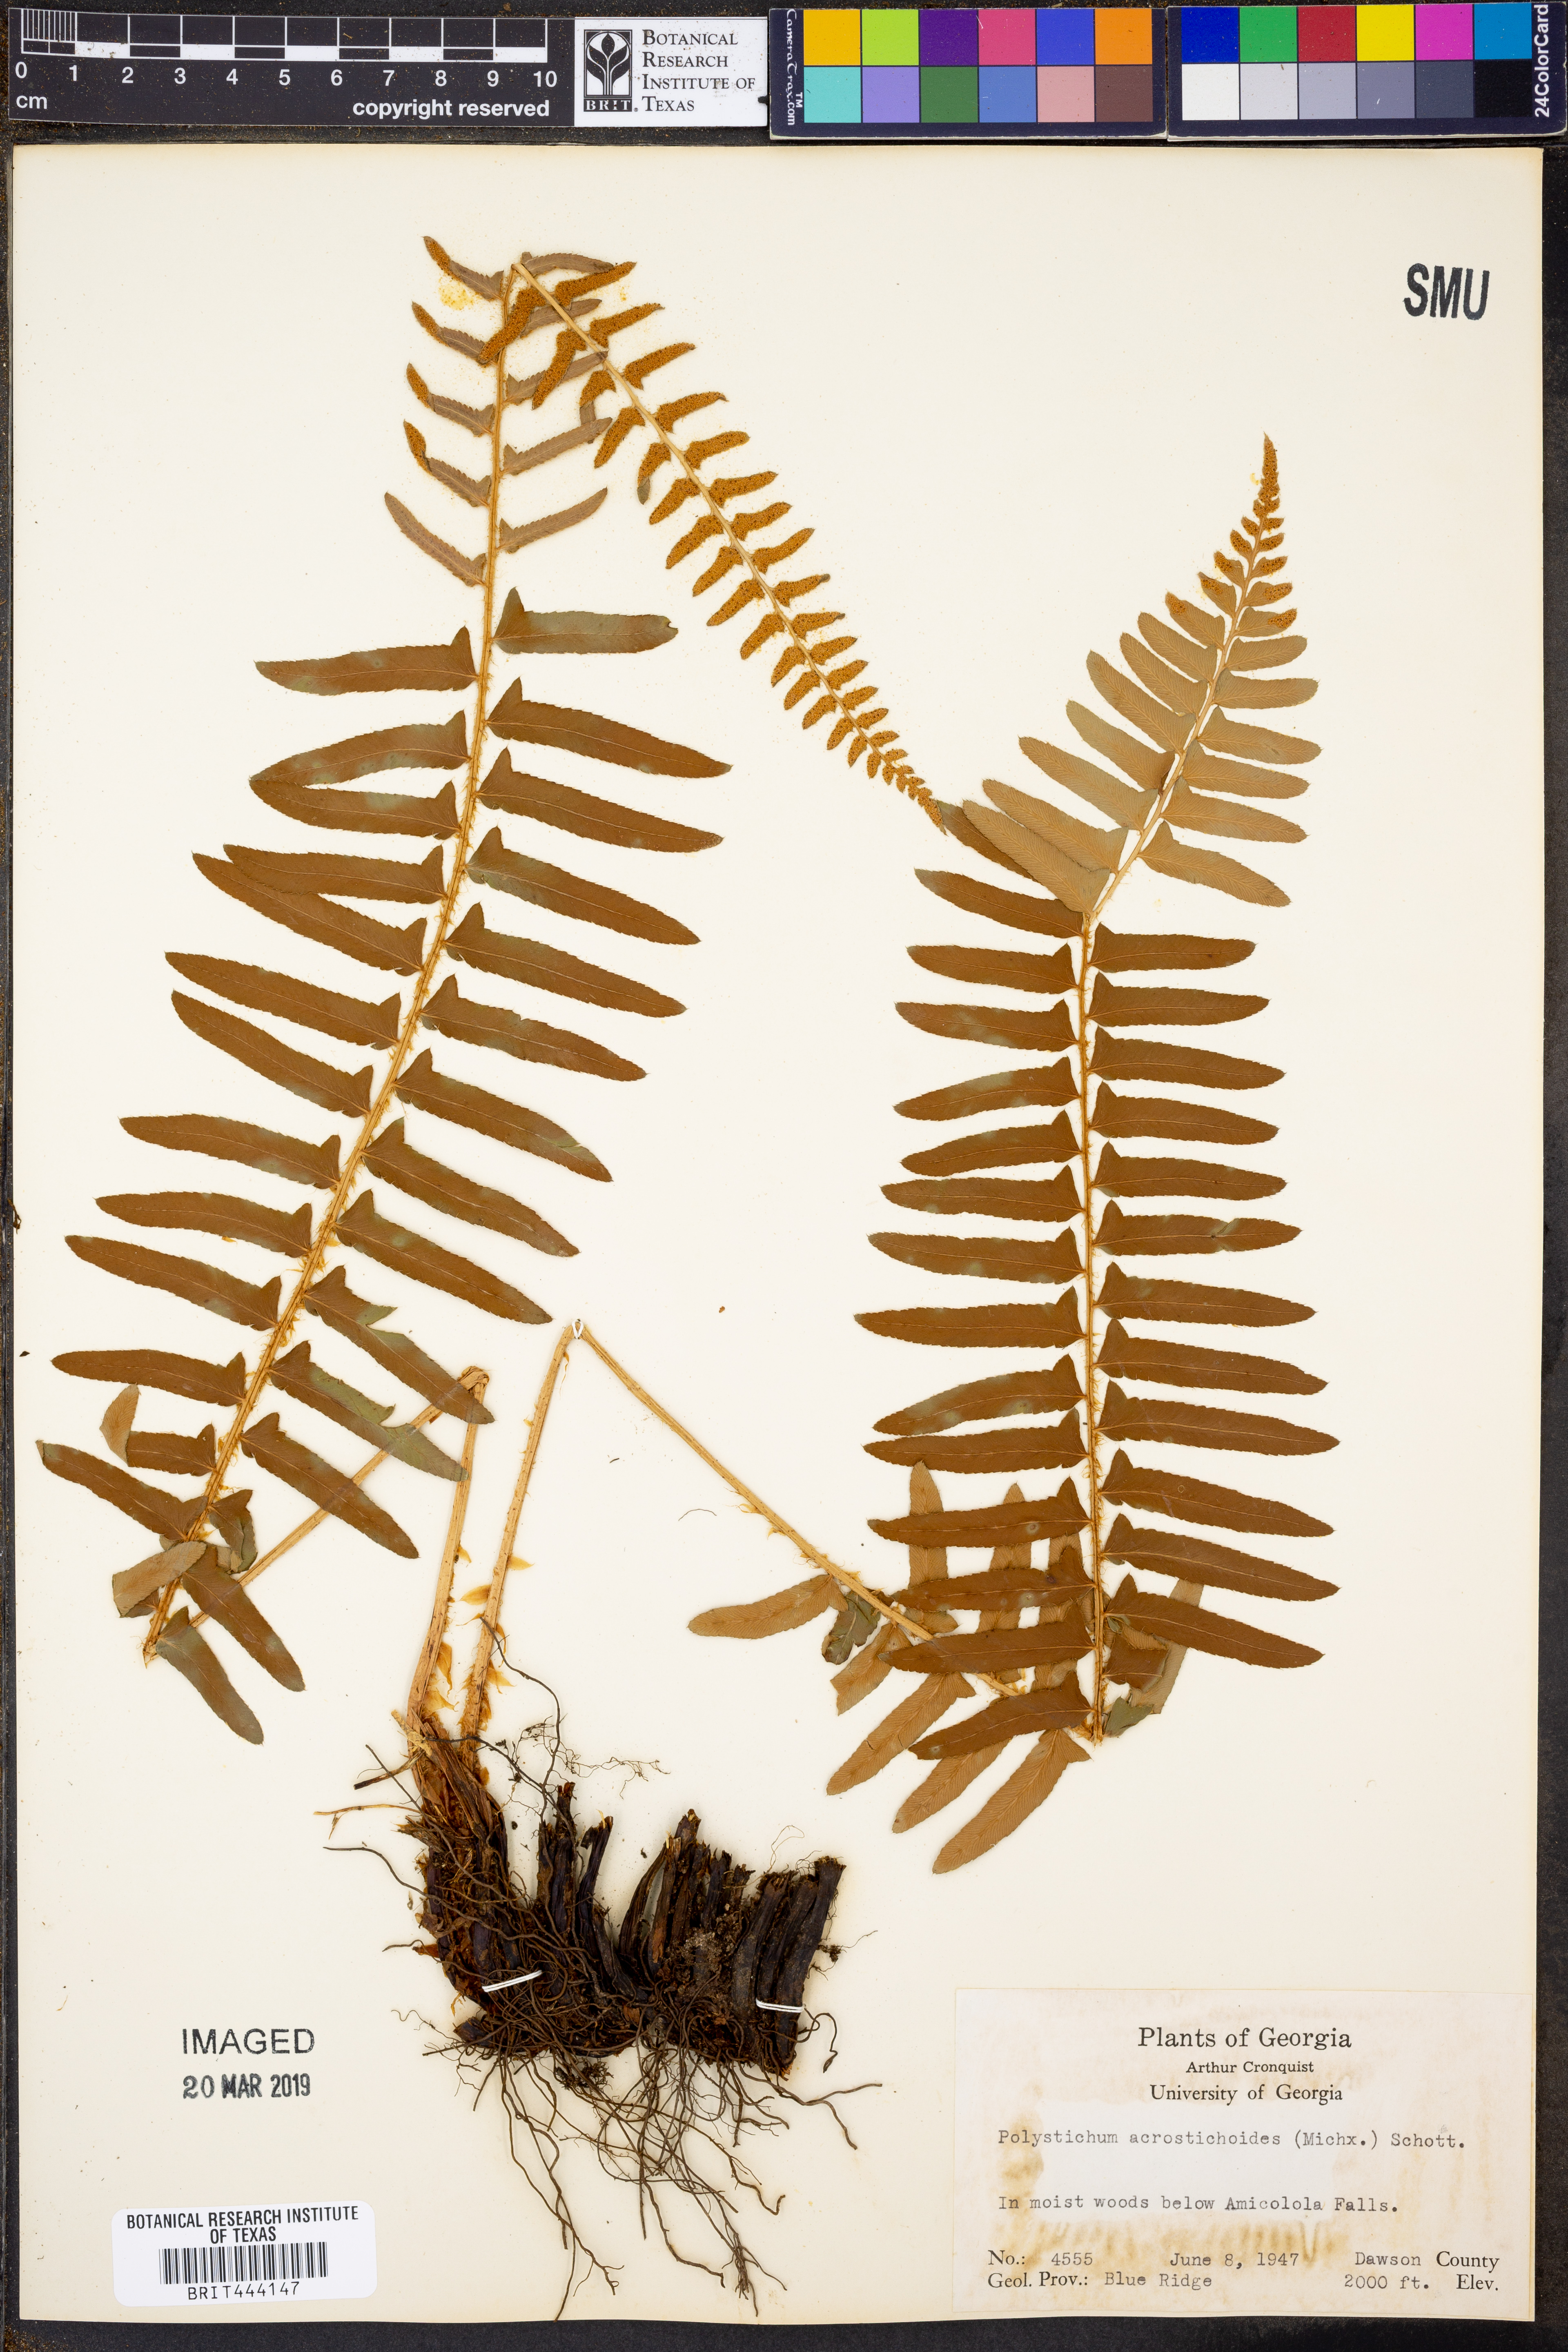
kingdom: Plantae
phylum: Tracheophyta
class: Polypodiopsida
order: Polypodiales
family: Dryopteridaceae
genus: Polystichum
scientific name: Polystichum acrostichoides
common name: Christmas fern
